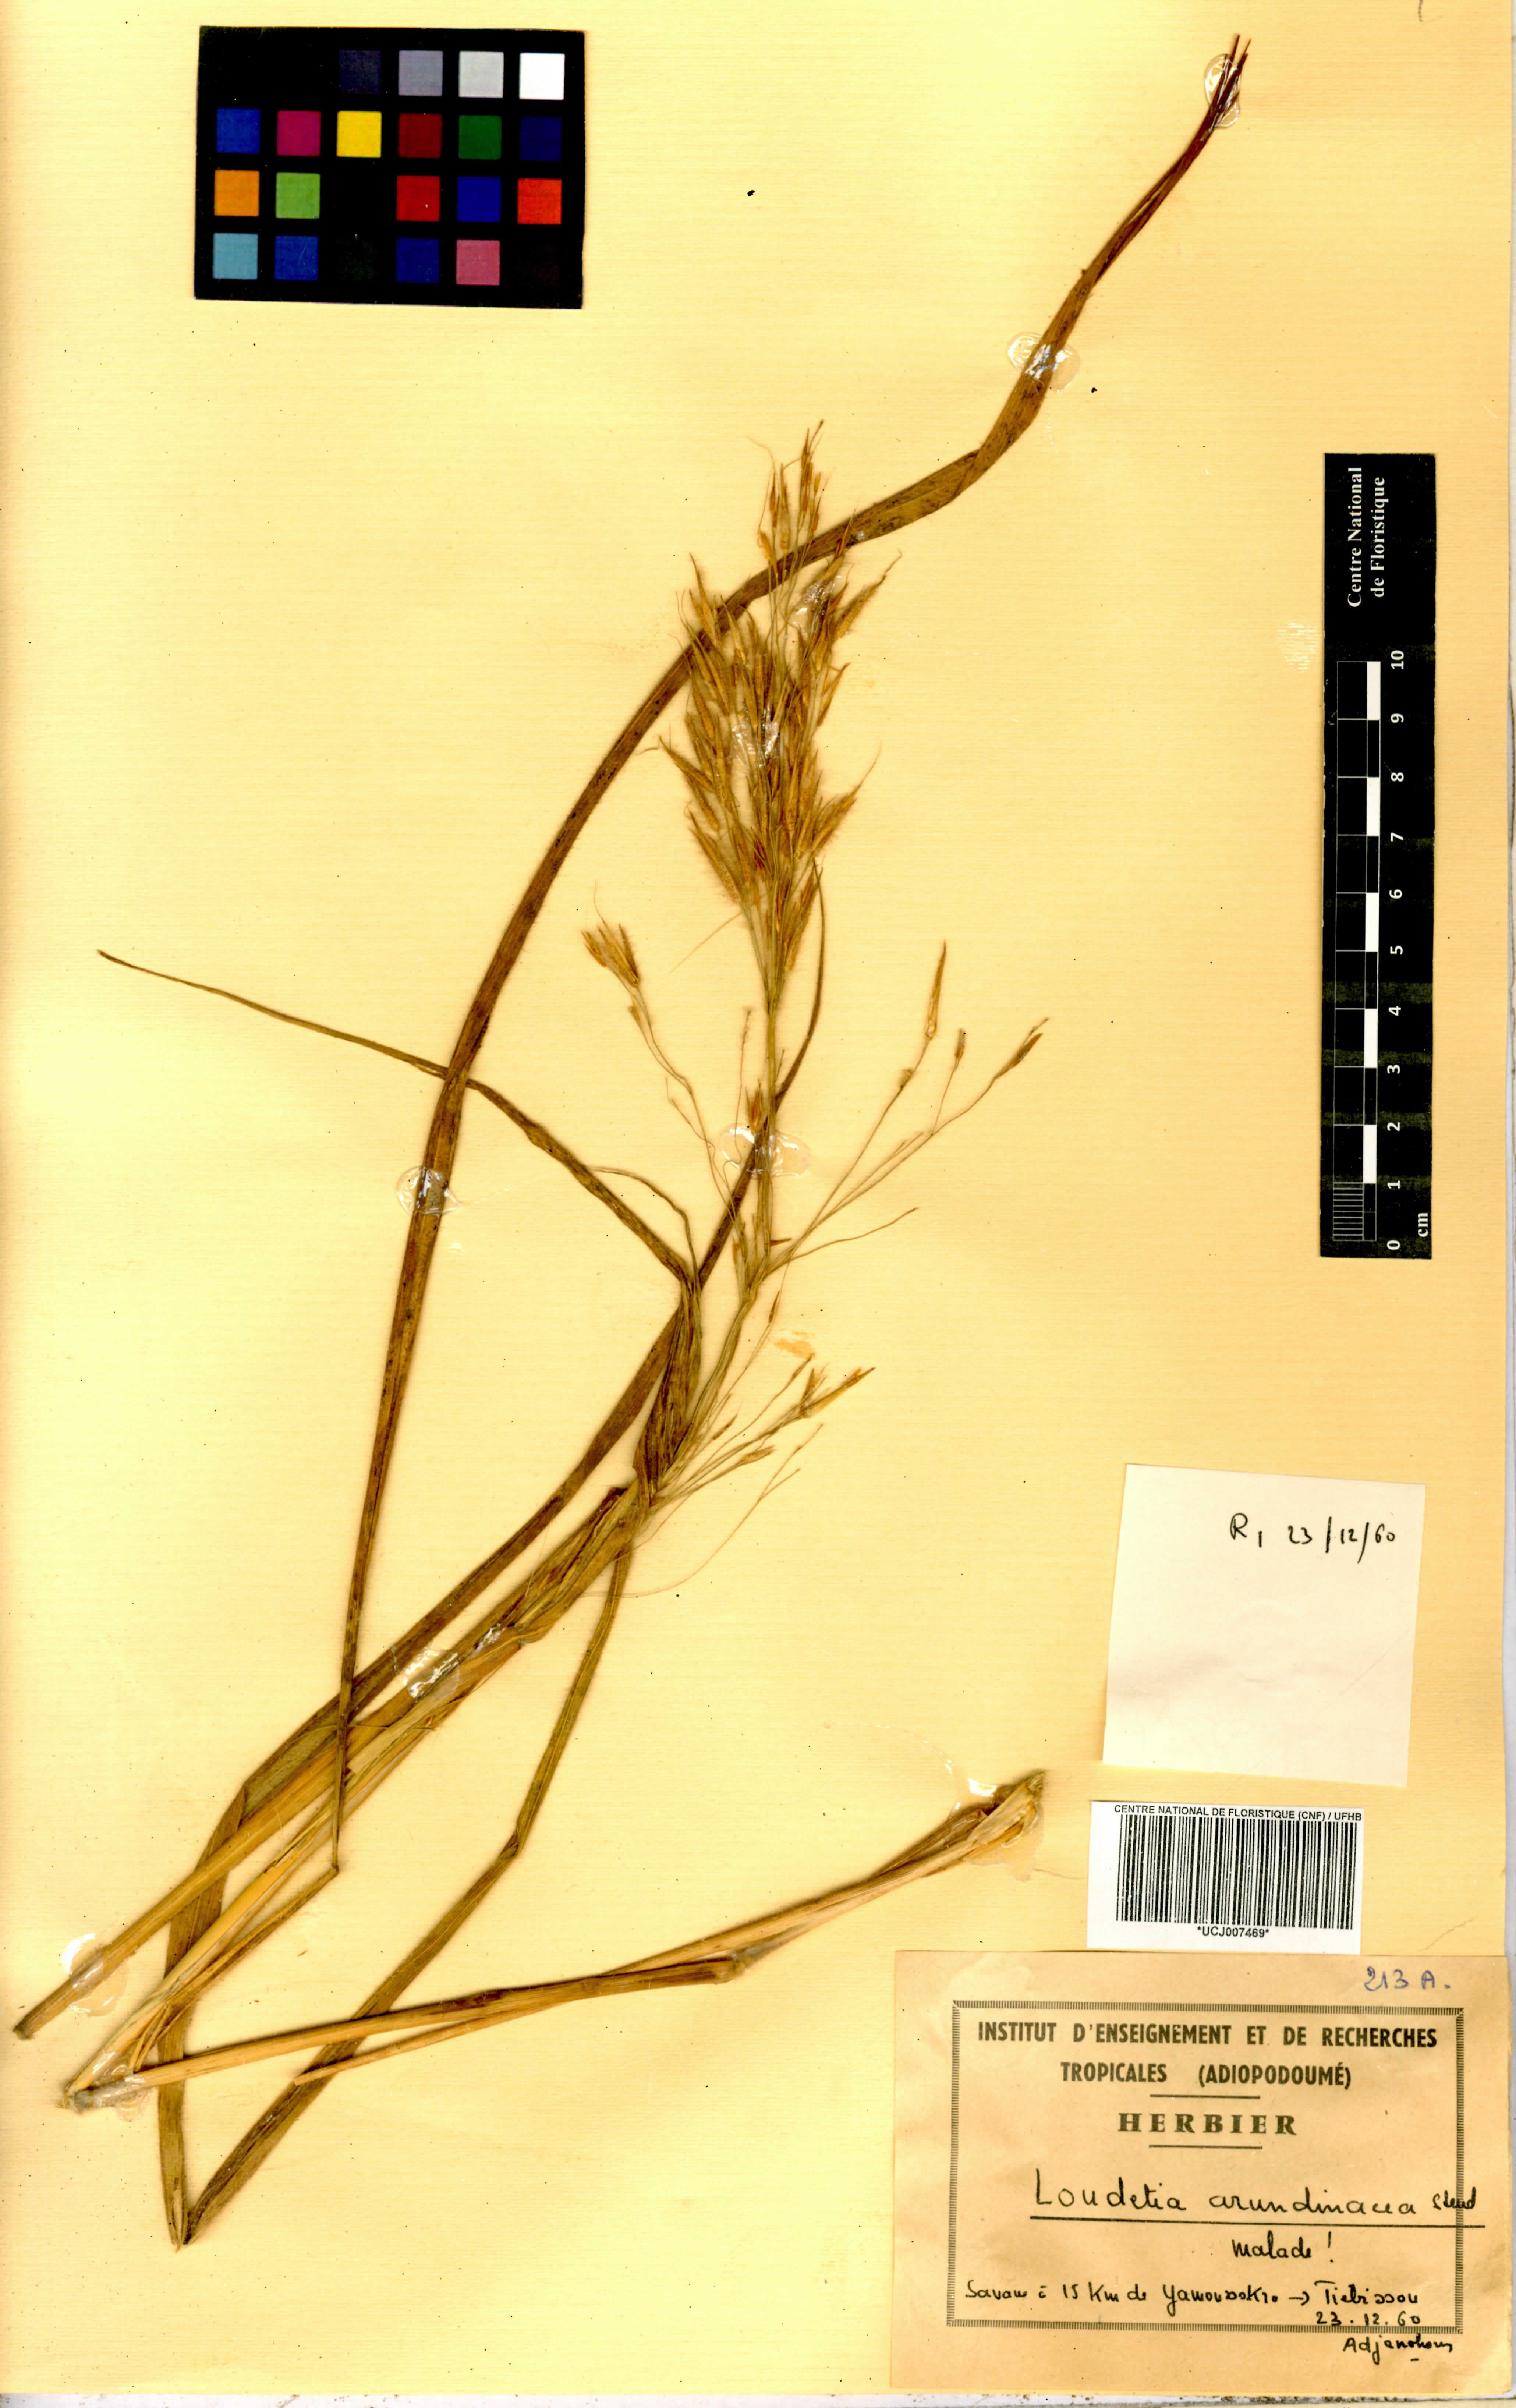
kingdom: Plantae
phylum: Tracheophyta
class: Liliopsida
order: Poales
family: Poaceae
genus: Loudetia
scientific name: Loudetia arundinacea
